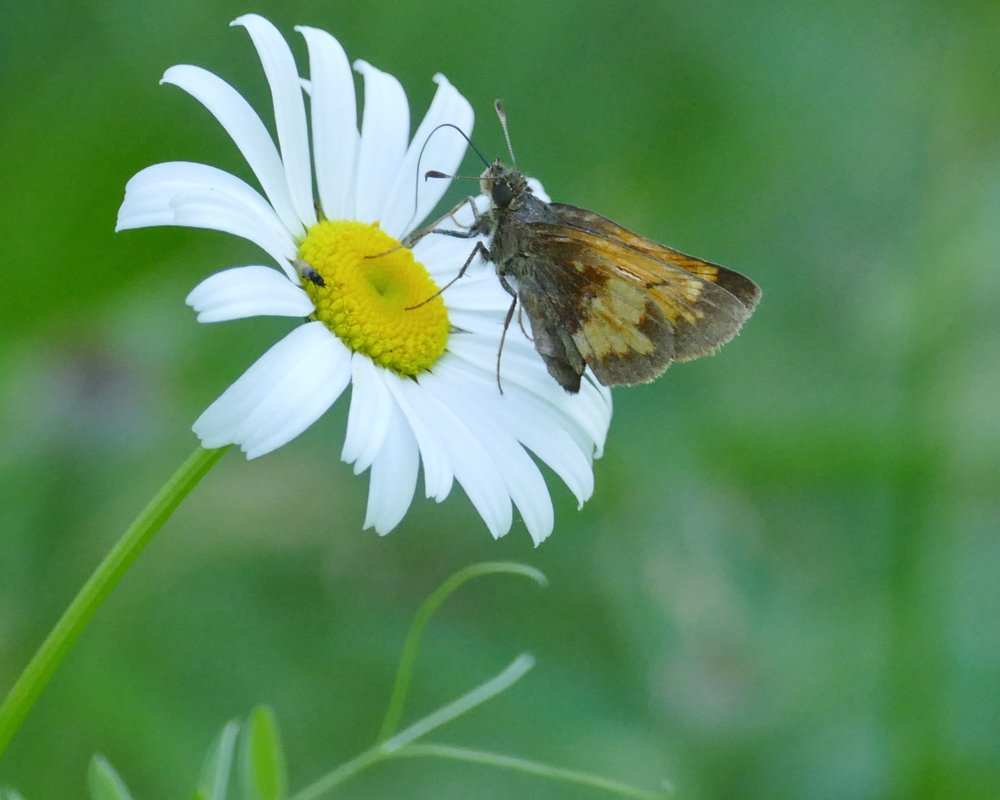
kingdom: Animalia
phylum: Arthropoda
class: Insecta
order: Lepidoptera
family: Hesperiidae
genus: Lon
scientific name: Lon hobomok
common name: Hobomok Skipper
